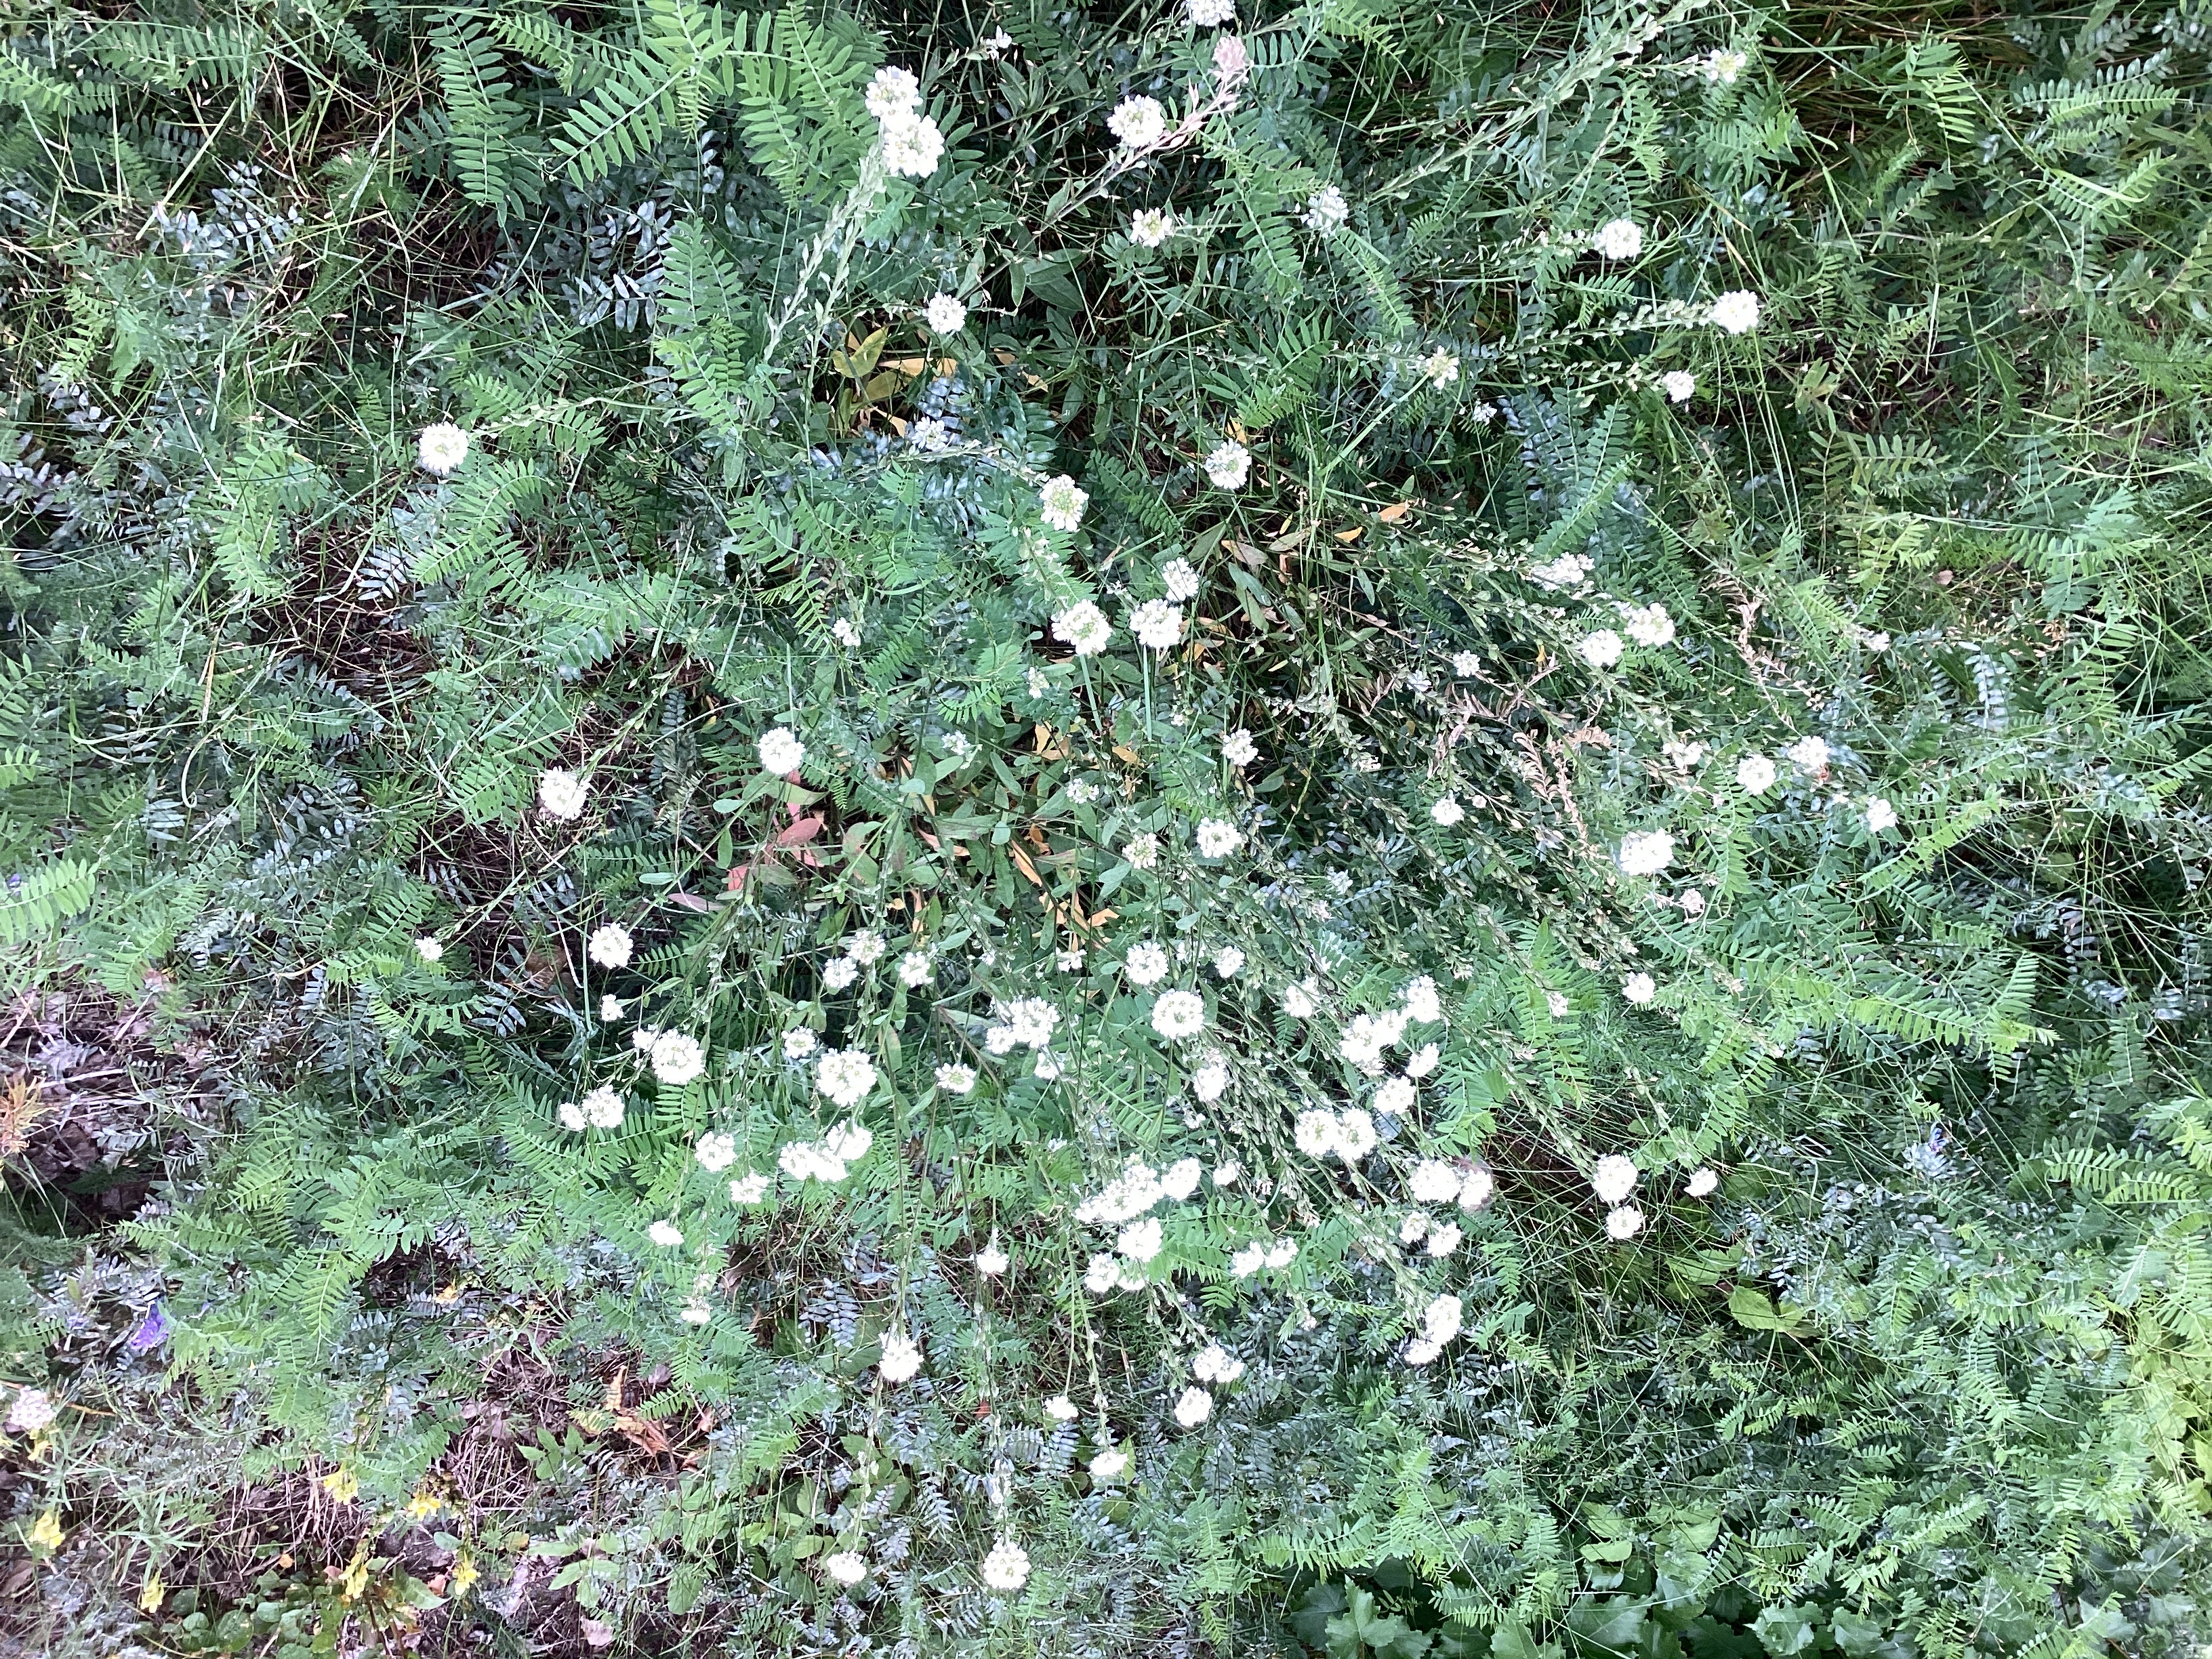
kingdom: Plantae
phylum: Tracheophyta
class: Magnoliopsida
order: Brassicales
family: Brassicaceae
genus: Berteroa
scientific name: Berteroa incana
